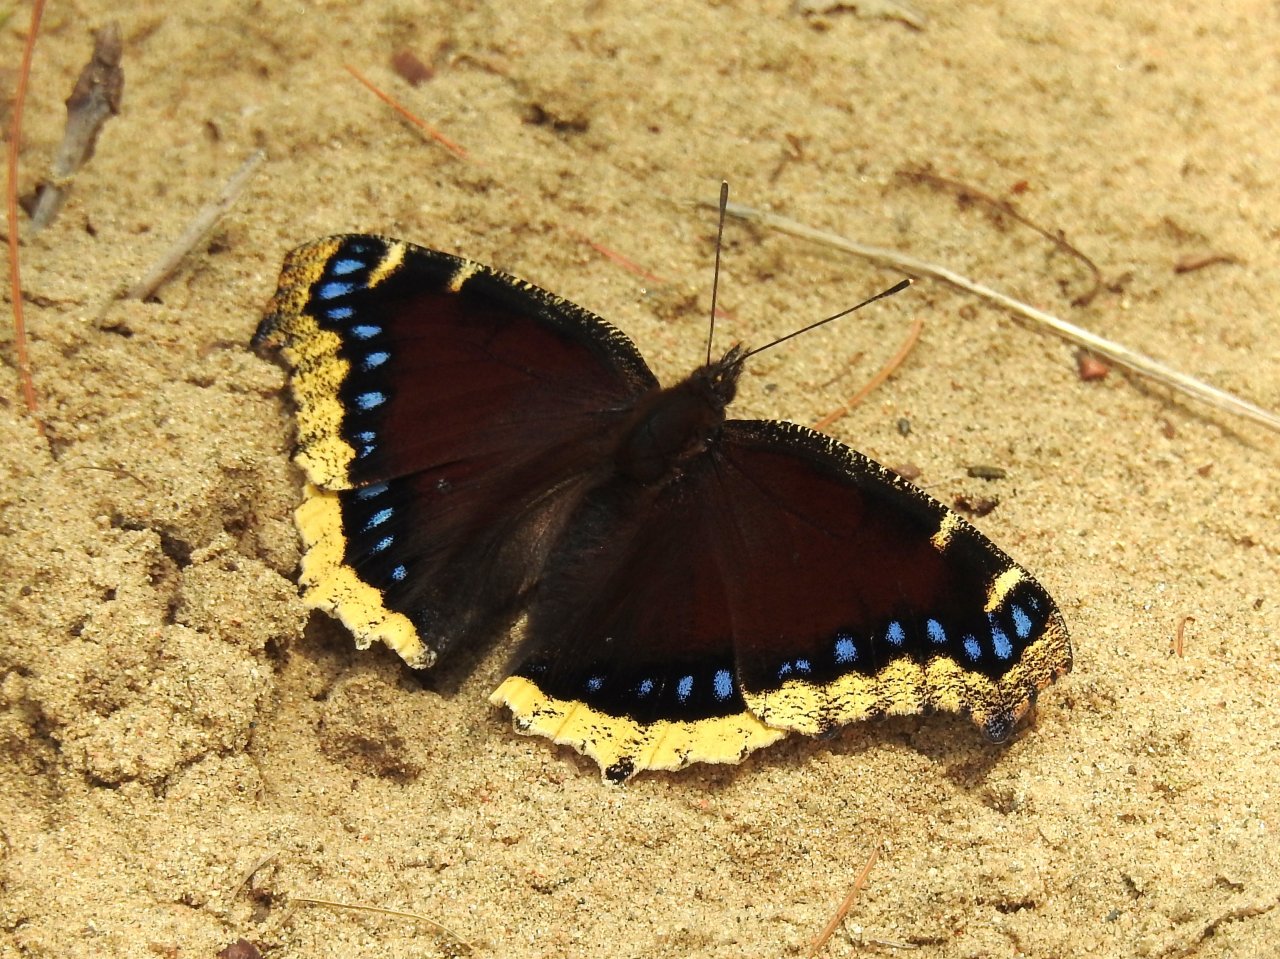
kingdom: Animalia
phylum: Arthropoda
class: Insecta
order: Lepidoptera
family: Nymphalidae
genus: Nymphalis
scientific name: Nymphalis antiopa
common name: Mourning Cloak
